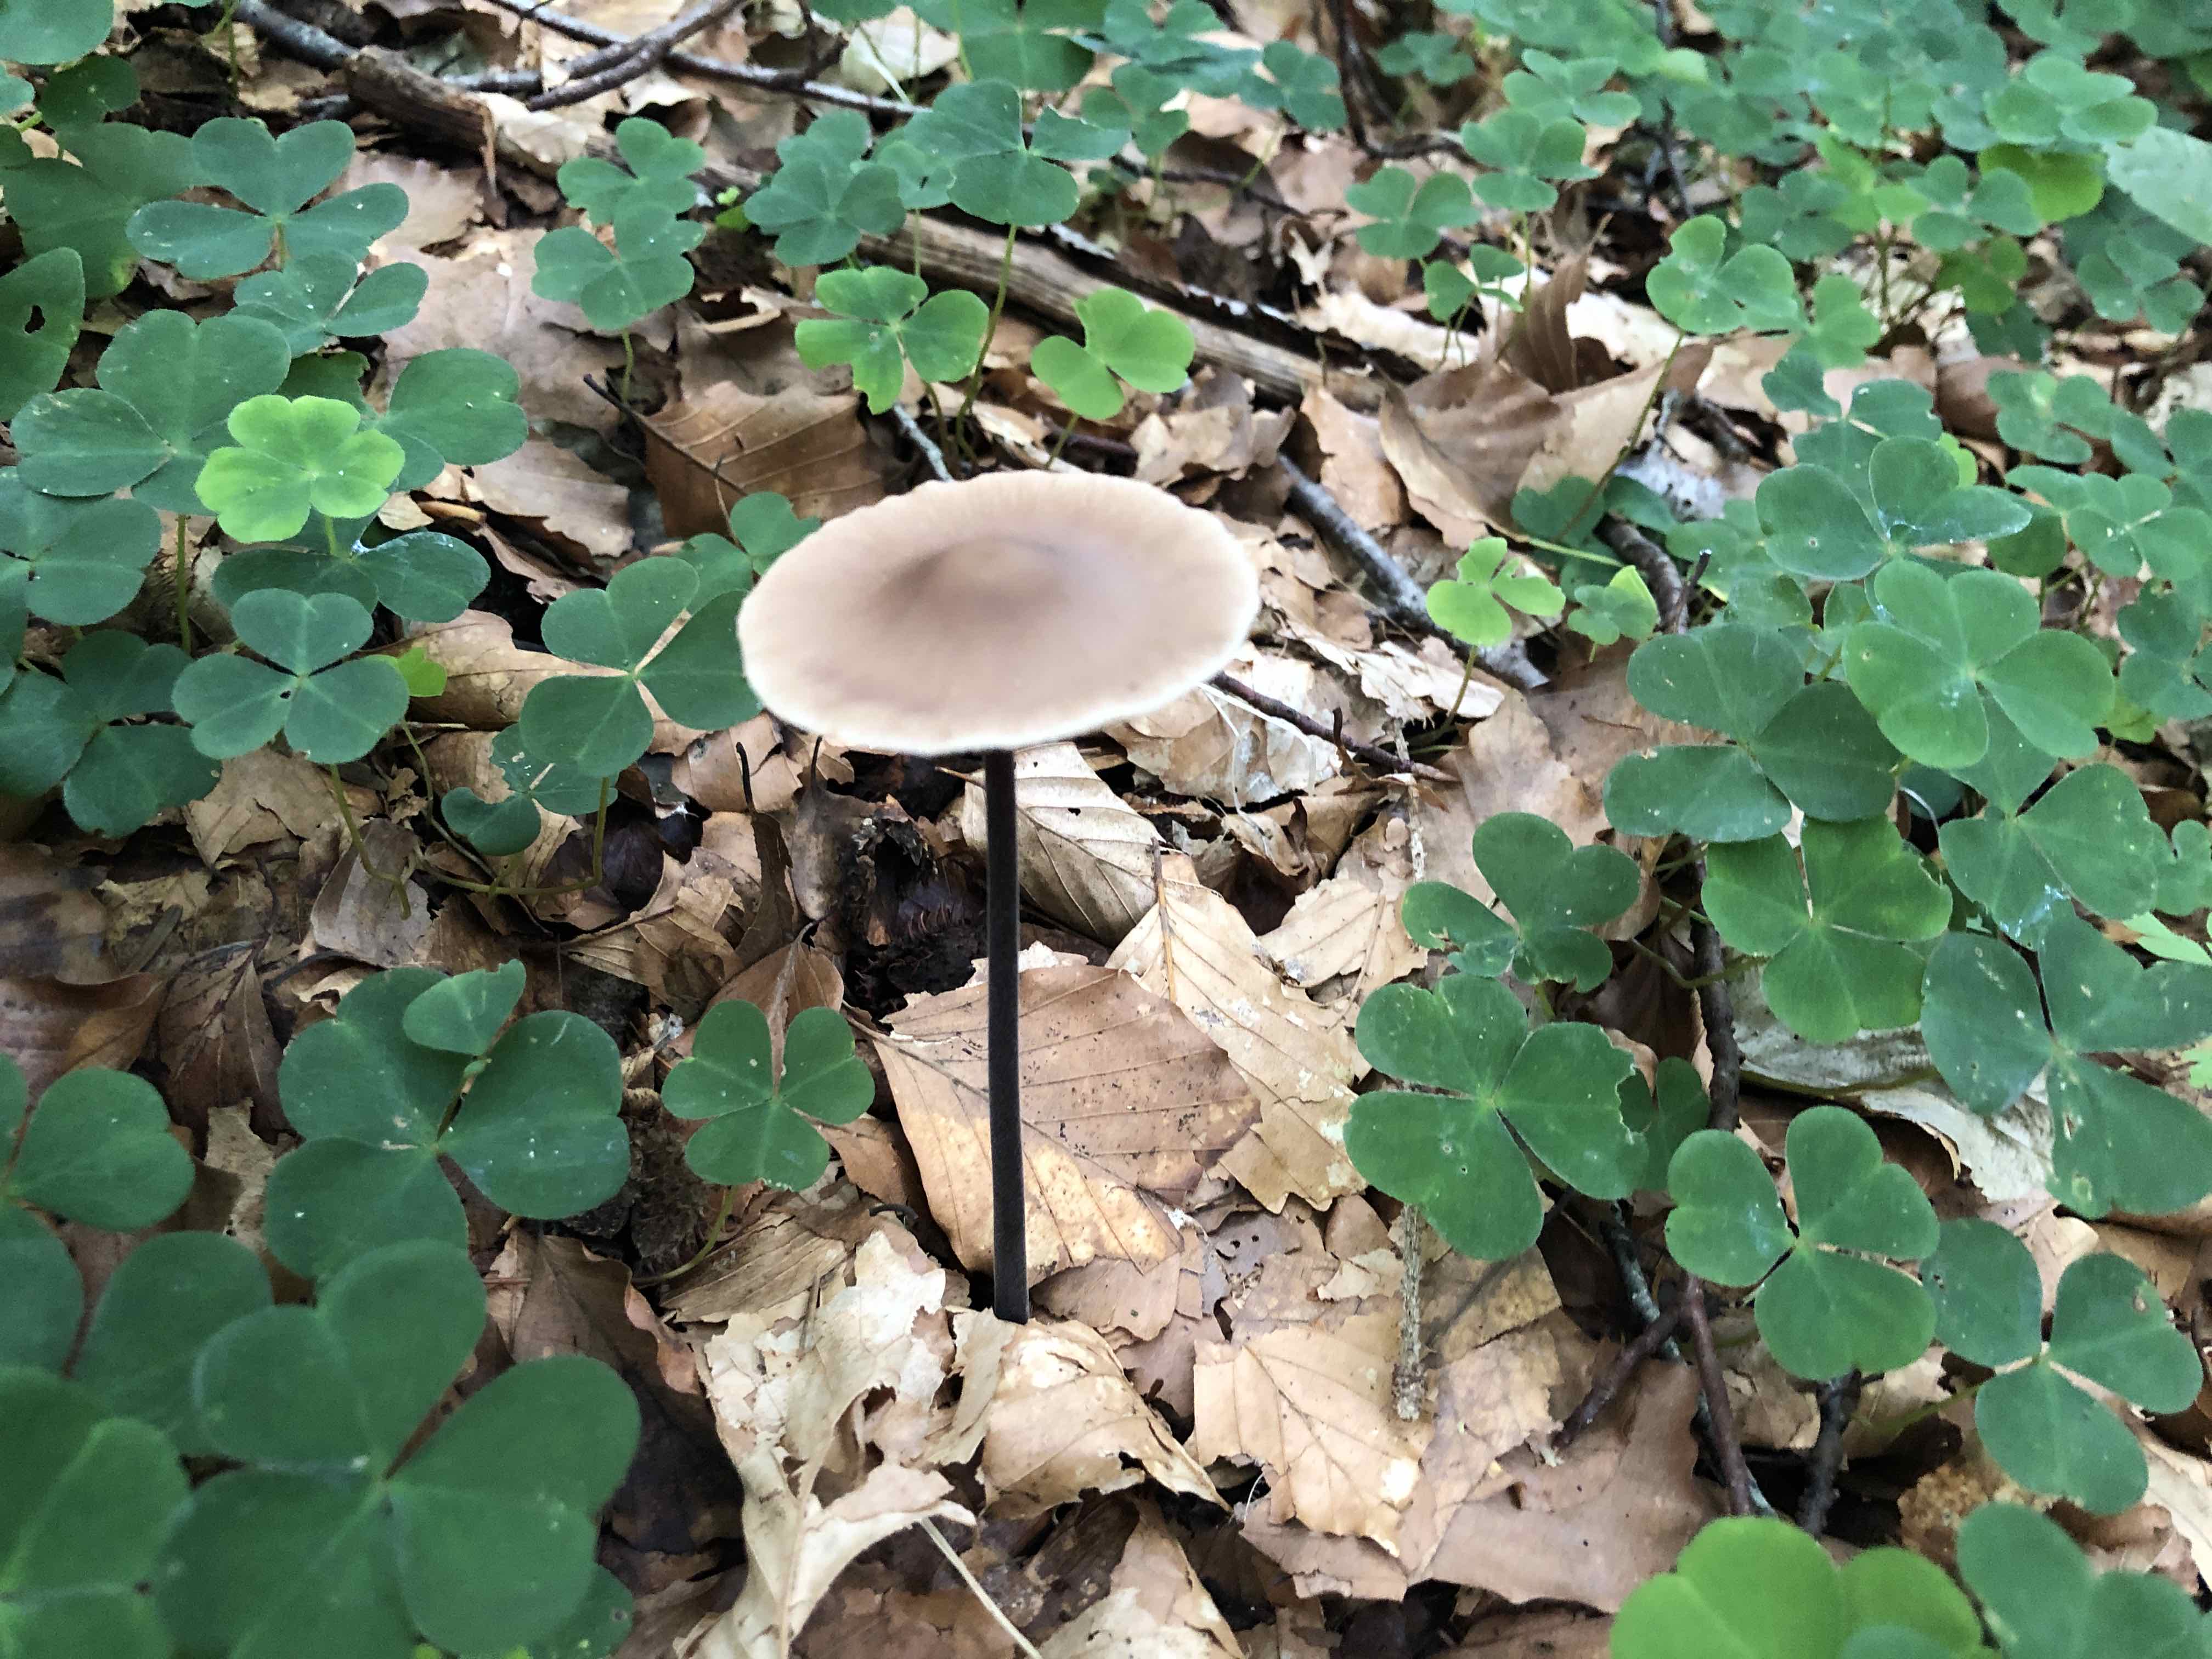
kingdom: Fungi
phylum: Basidiomycota
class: Agaricomycetes
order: Agaricales
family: Omphalotaceae
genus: Mycetinis
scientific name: Mycetinis alliaceus
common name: stor løghat
